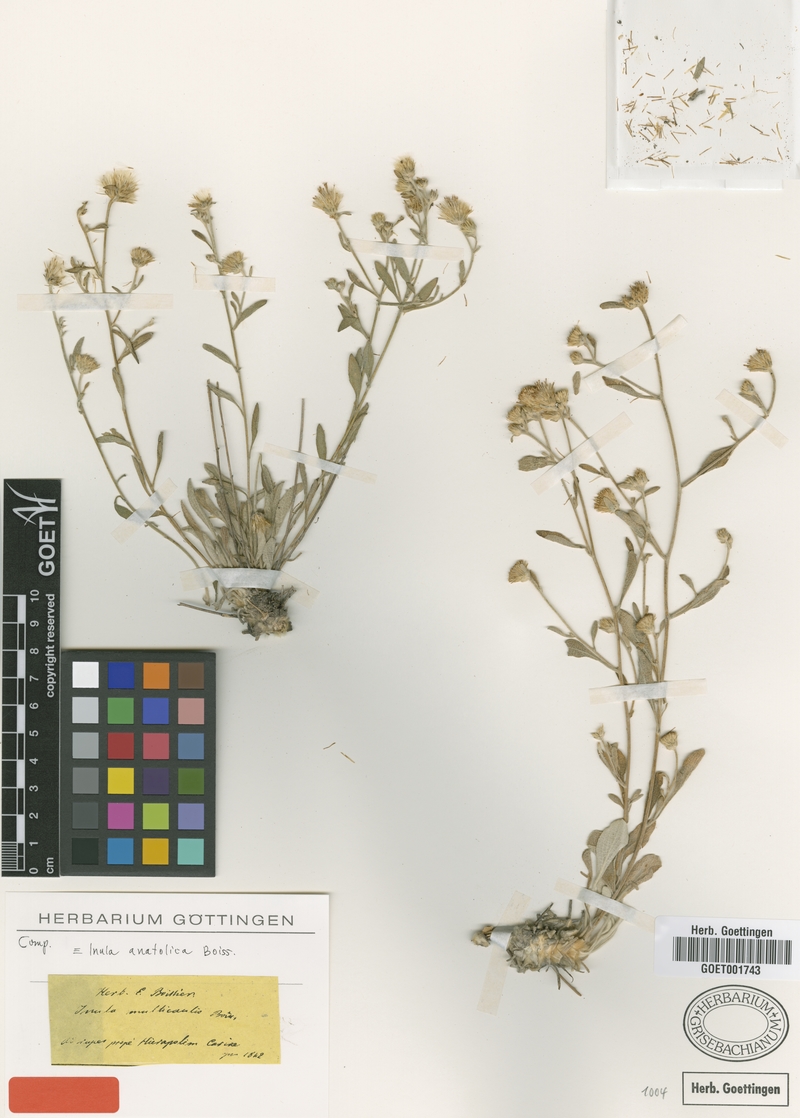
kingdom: Plantae
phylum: Tracheophyta
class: Magnoliopsida
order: Asterales
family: Asteraceae
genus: Inula
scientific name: Inula anatolica
